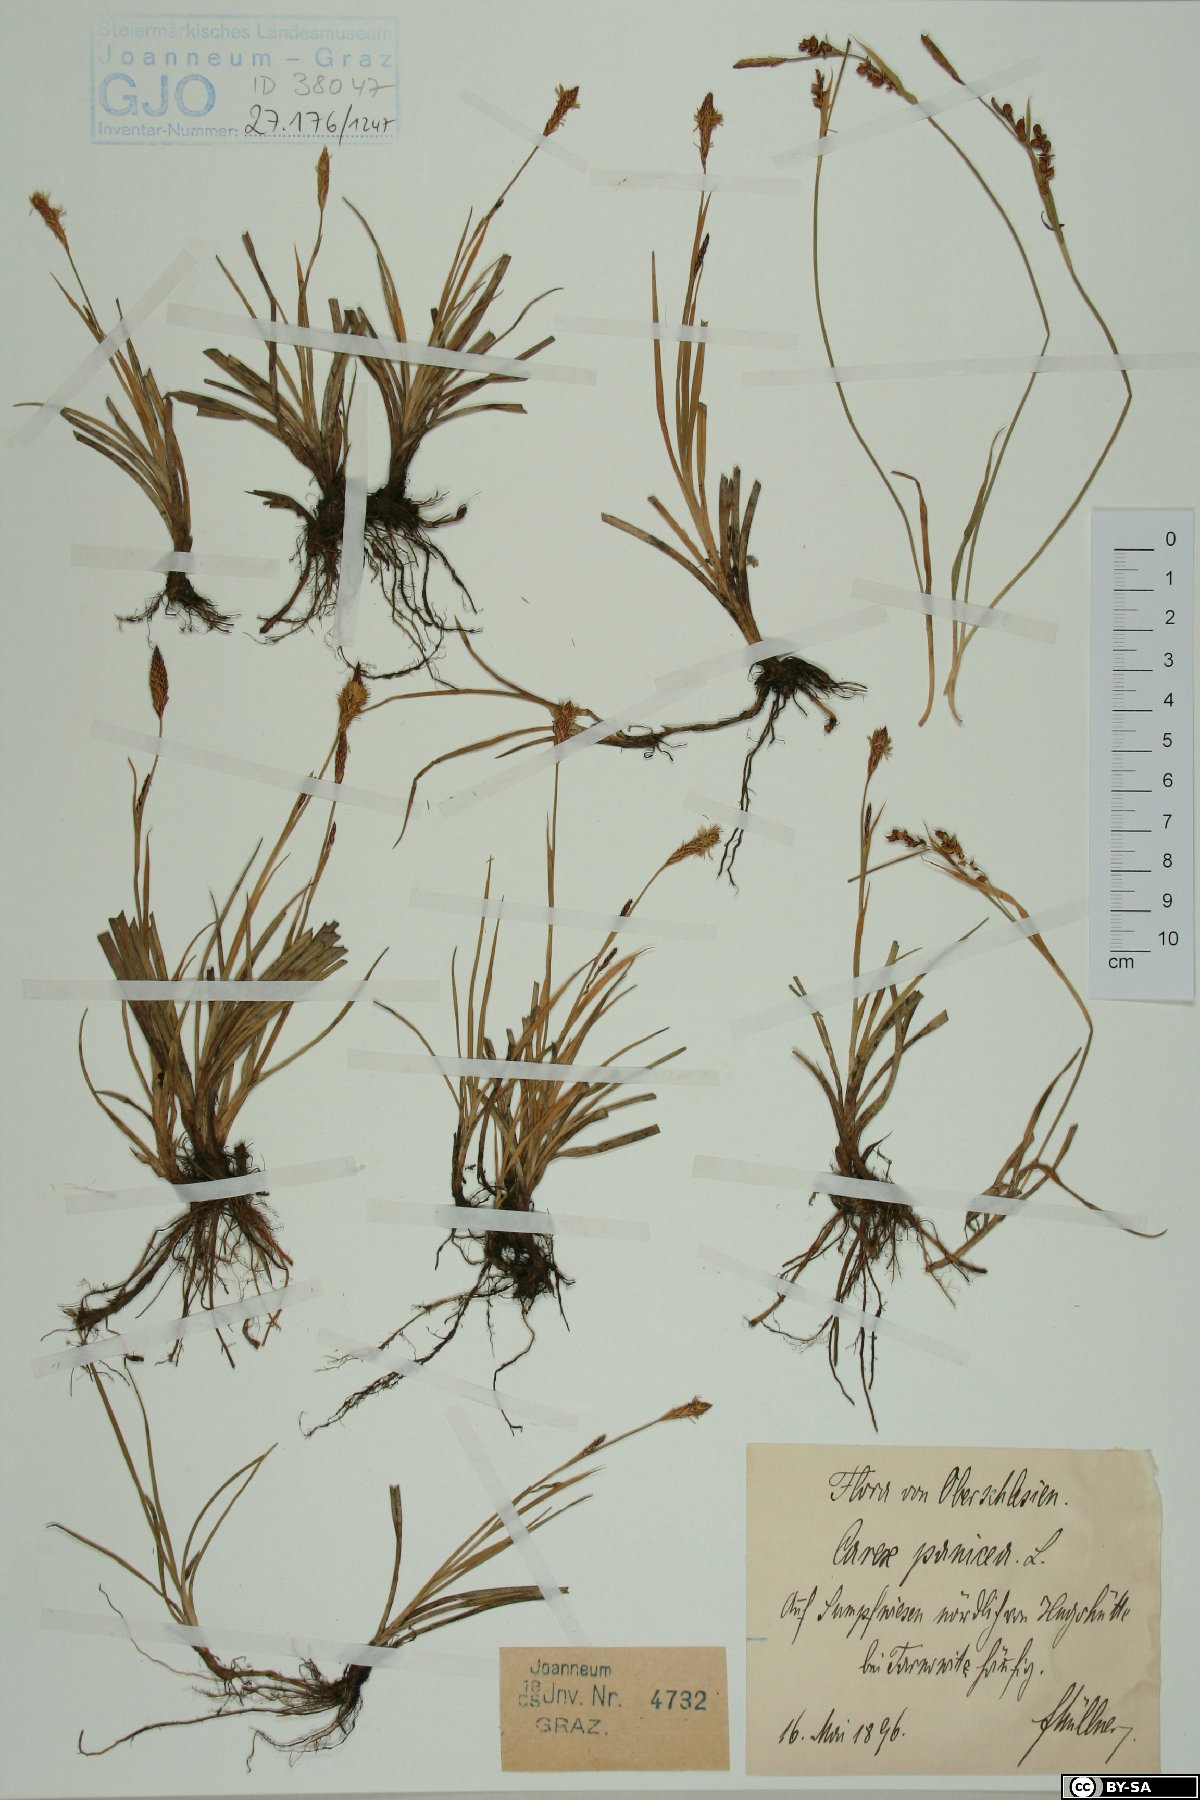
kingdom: Plantae
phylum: Tracheophyta
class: Liliopsida
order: Poales
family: Cyperaceae
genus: Carex
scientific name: Carex panicea
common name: Carnation sedge
